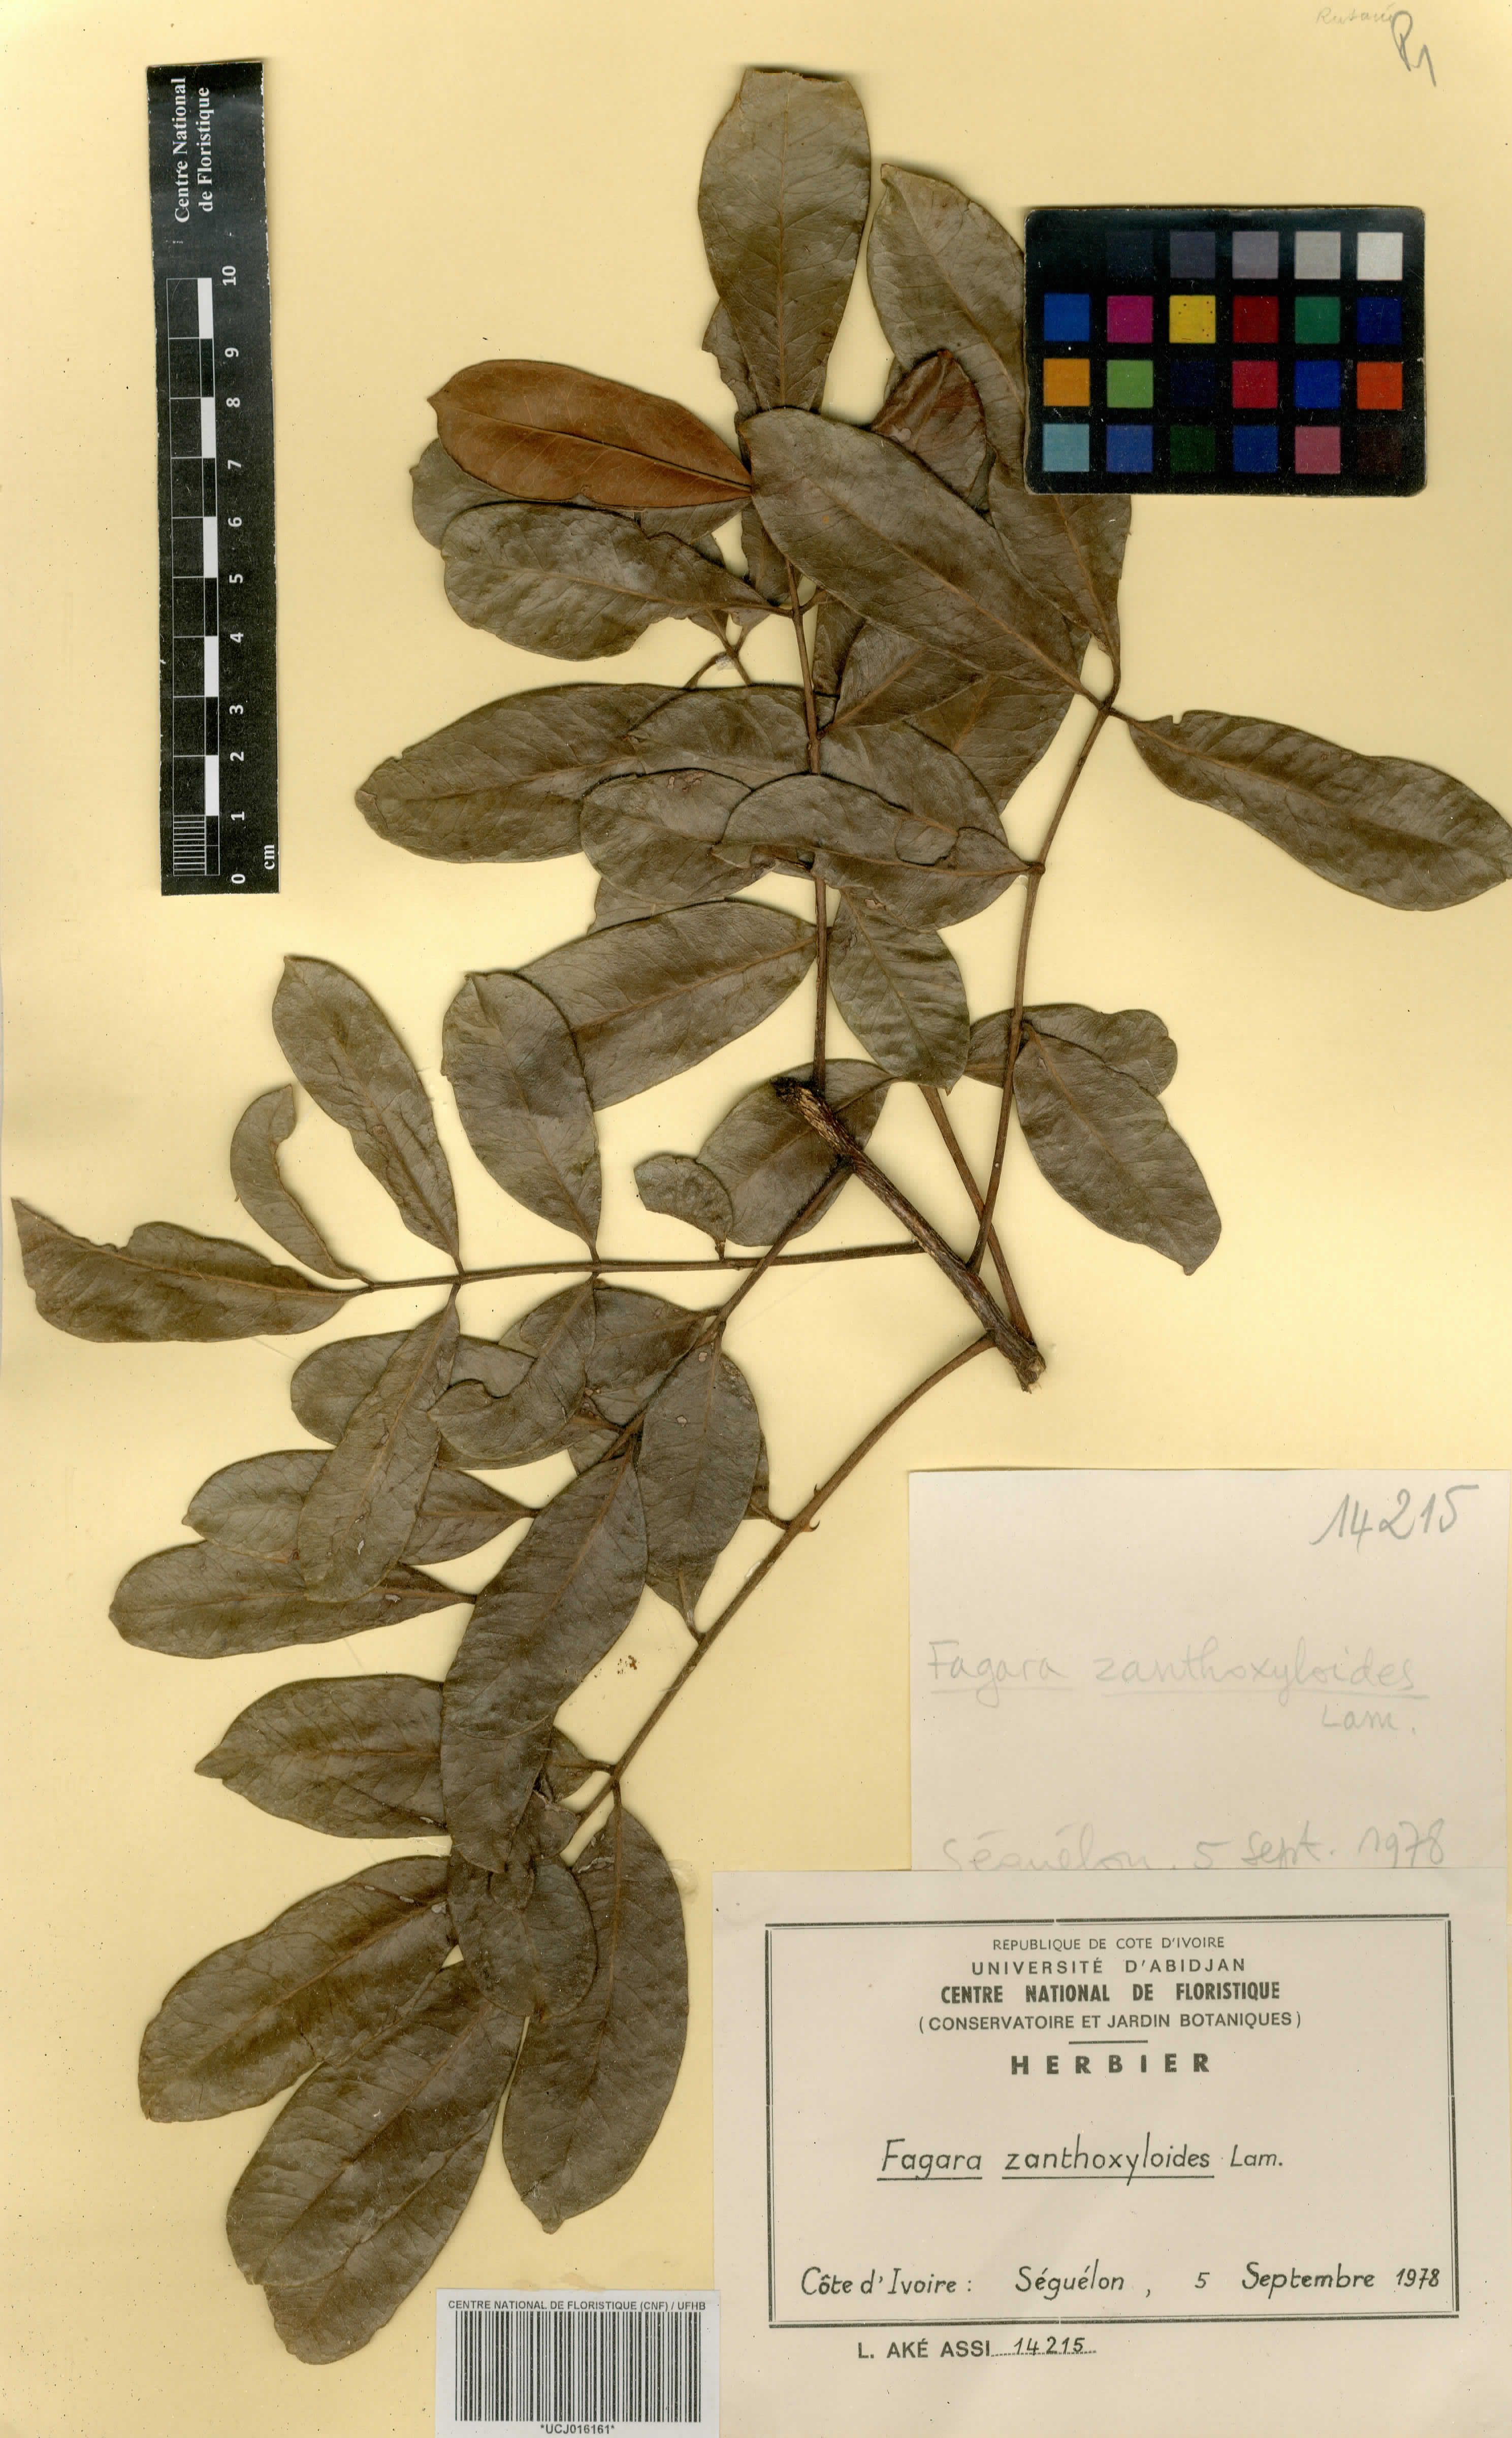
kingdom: Plantae
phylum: Tracheophyta
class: Magnoliopsida
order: Sapindales
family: Rutaceae
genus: Zanthoxylum
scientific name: Zanthoxylum zanthoxyloides
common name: Senegal prickly-ash
